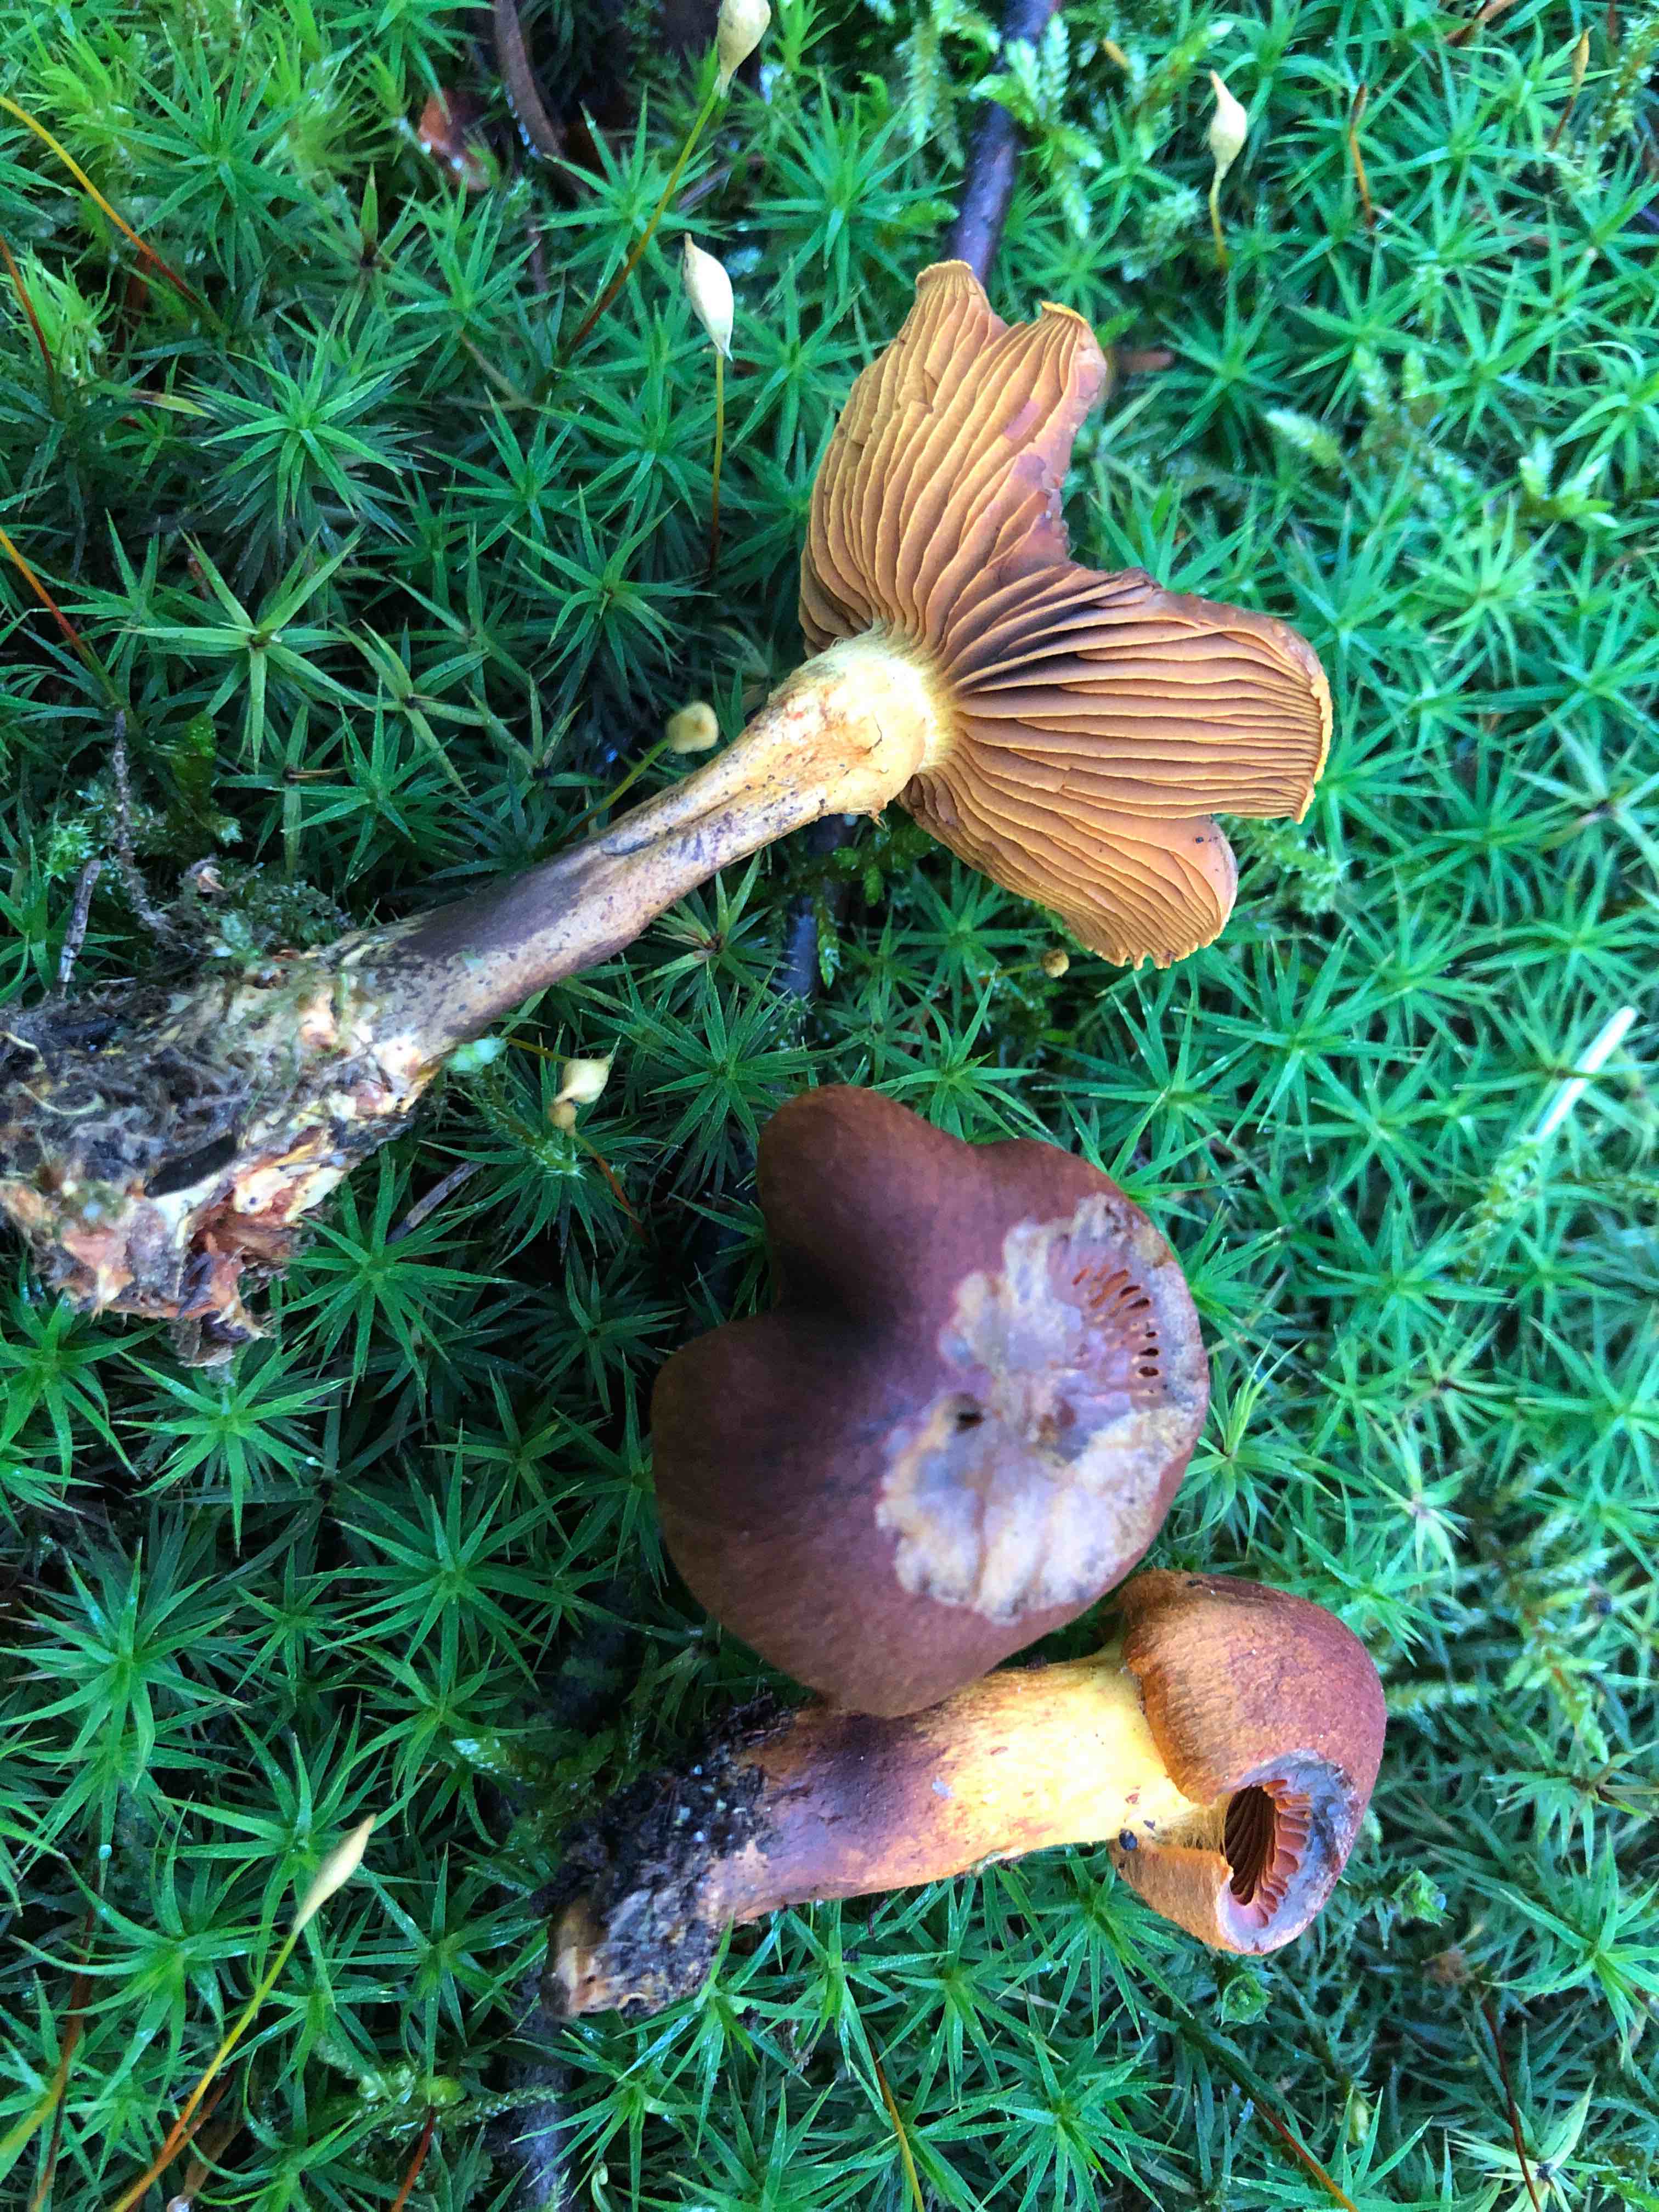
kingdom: Fungi
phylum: Basidiomycota
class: Agaricomycetes
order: Agaricales
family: Cortinariaceae
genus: Cortinarius
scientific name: Cortinarius malicorius
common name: grønkødet slørhat
